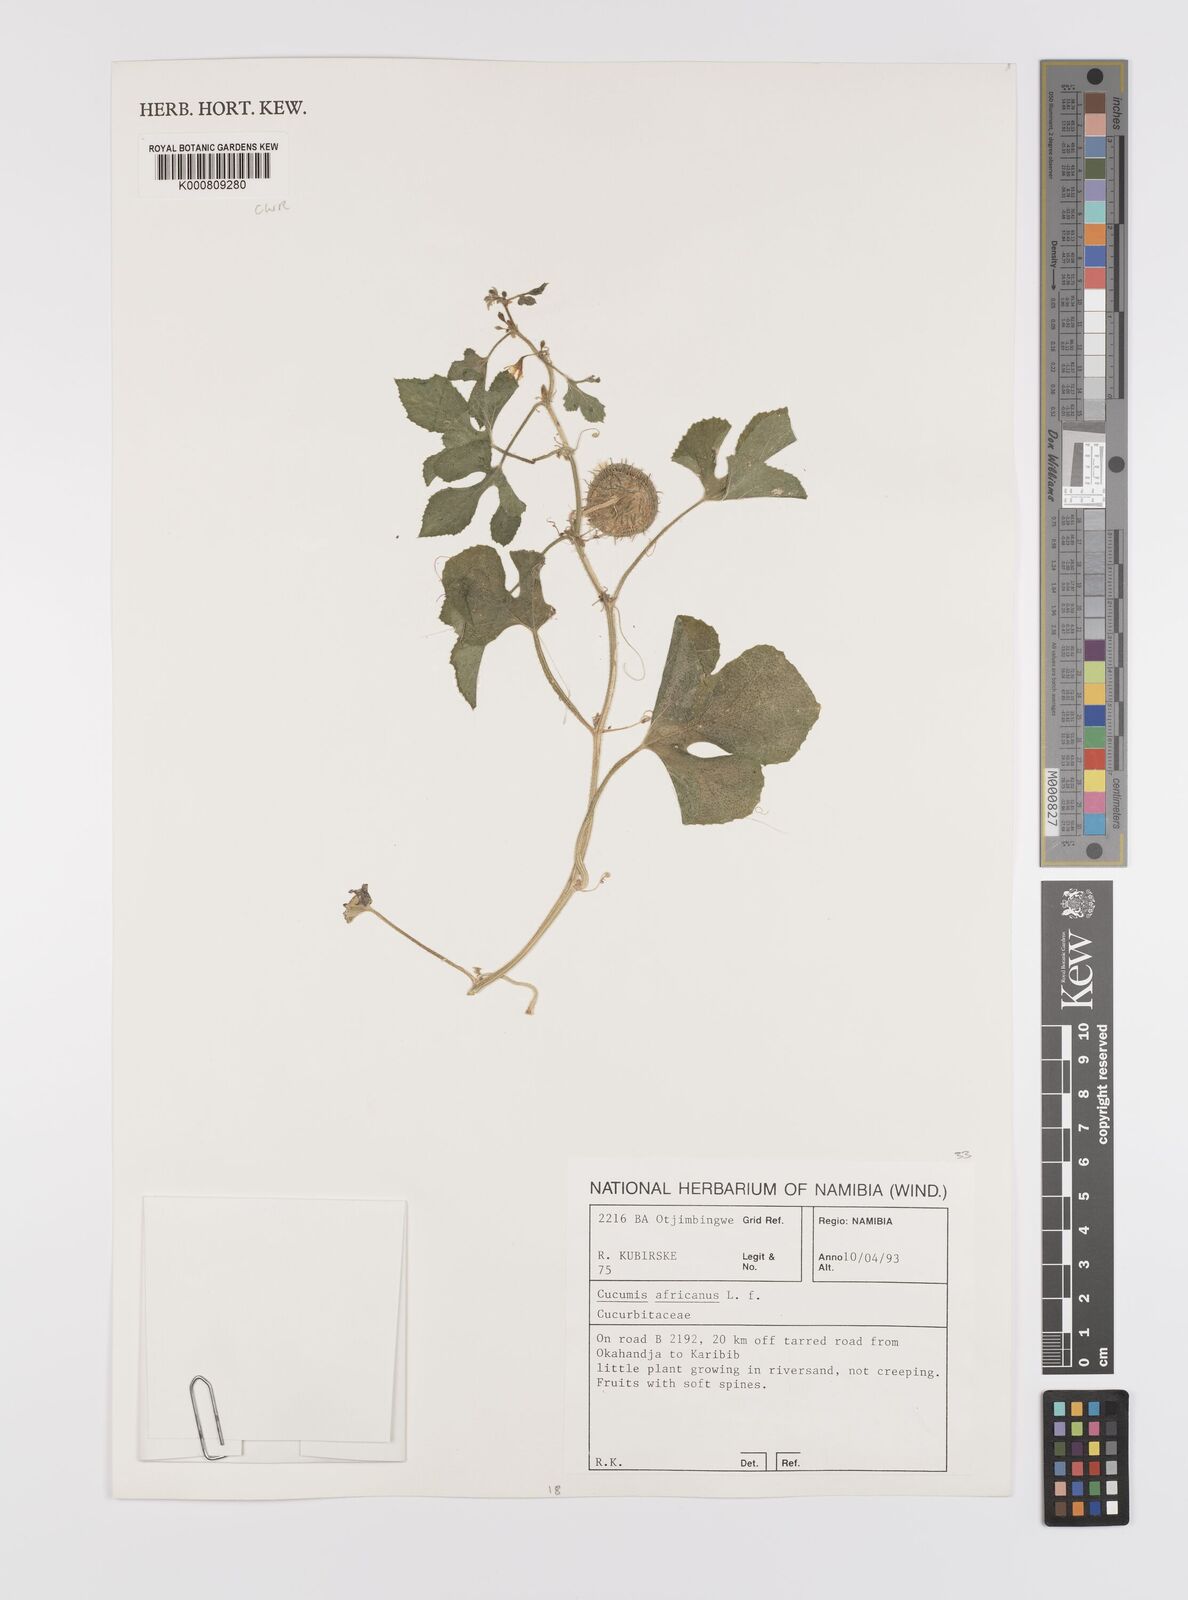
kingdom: Plantae
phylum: Tracheophyta
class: Magnoliopsida
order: Cucurbitales
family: Cucurbitaceae
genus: Cucumis
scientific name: Cucumis africanus
